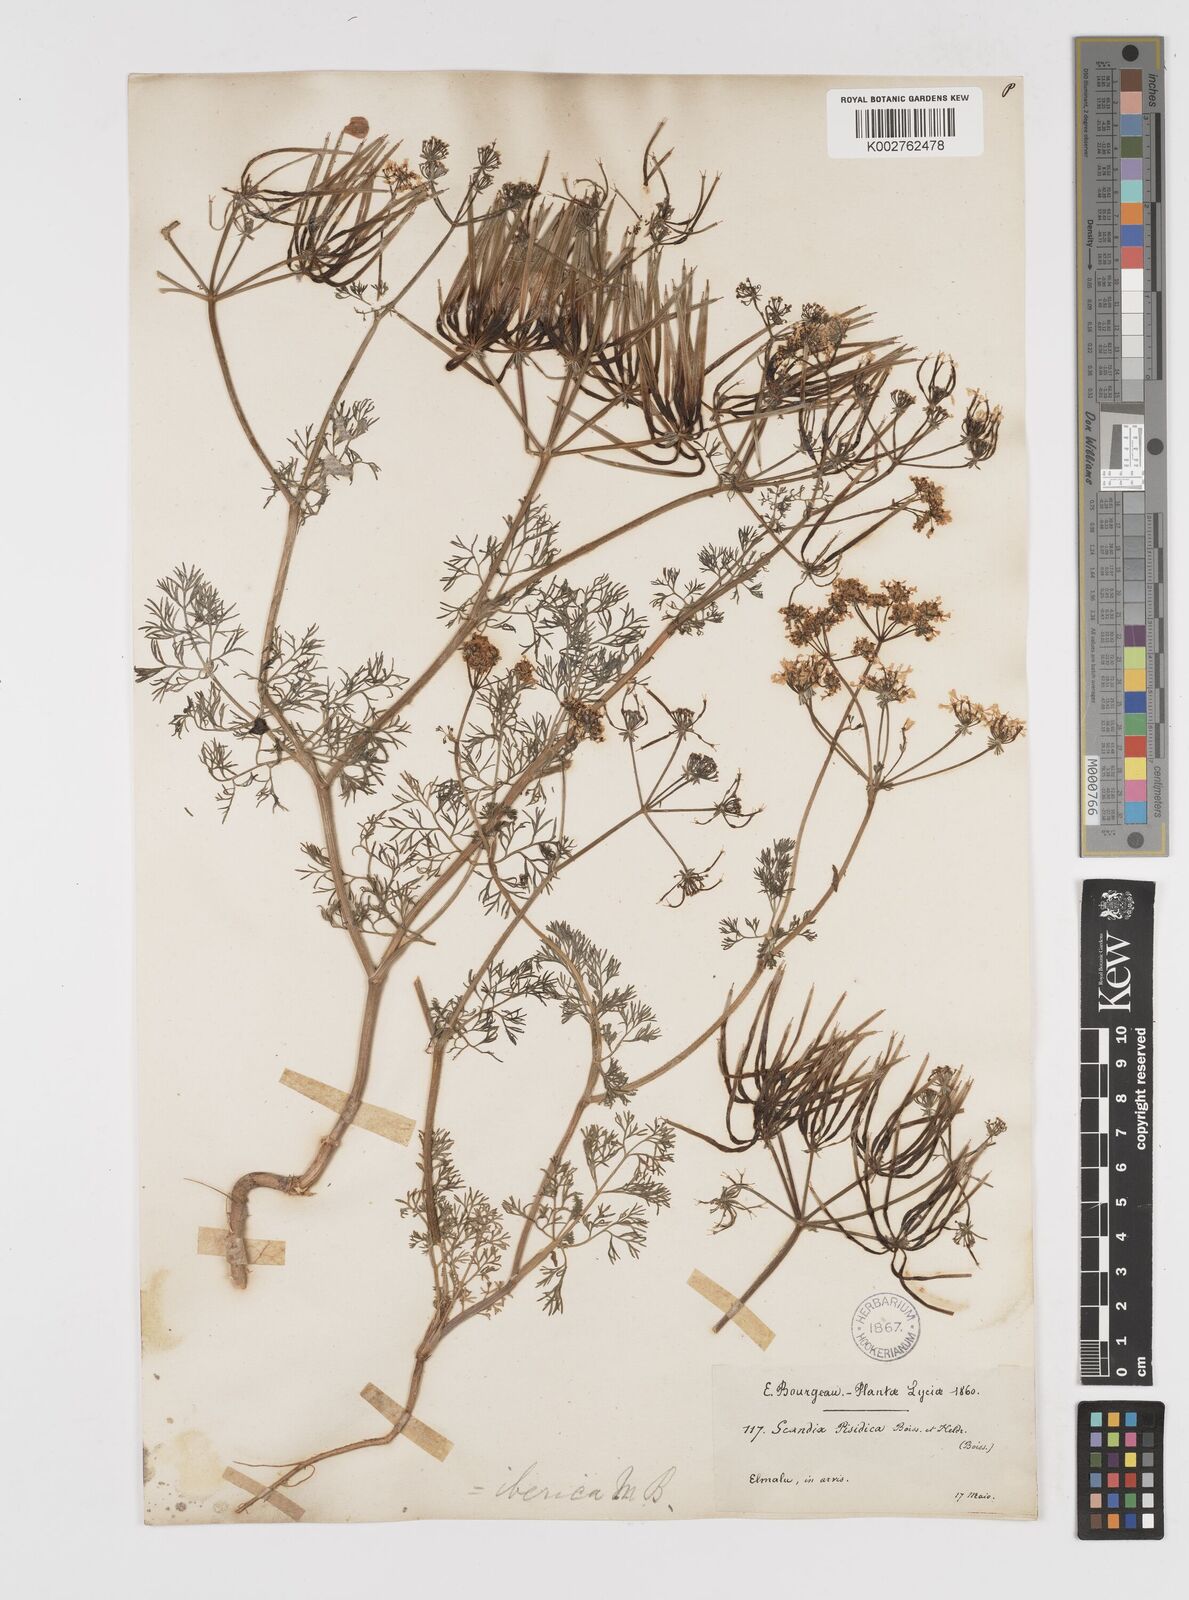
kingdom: Plantae
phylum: Tracheophyta
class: Magnoliopsida
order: Apiales
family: Apiaceae
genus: Scandix
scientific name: Scandix iberica
